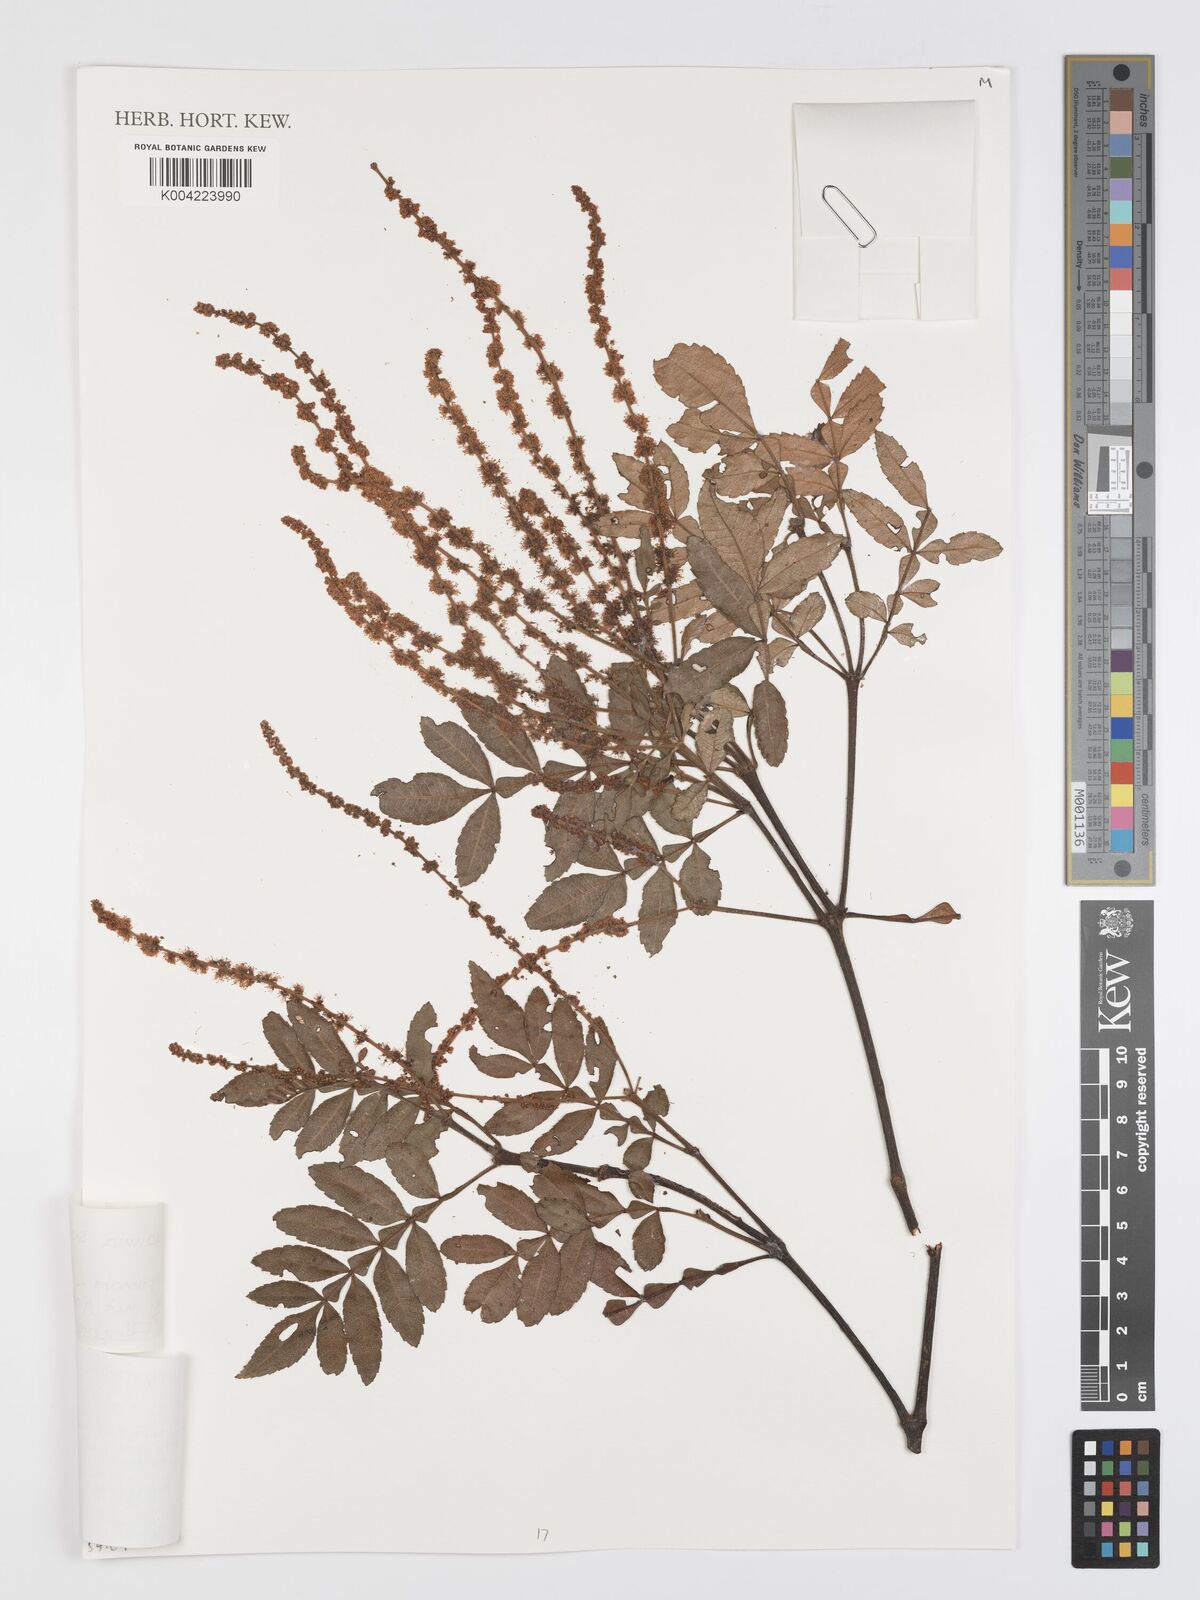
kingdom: Plantae
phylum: Tracheophyta
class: Magnoliopsida
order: Oxalidales
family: Cunoniaceae
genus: Weinmannia
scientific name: Weinmannia subsessiliflora
